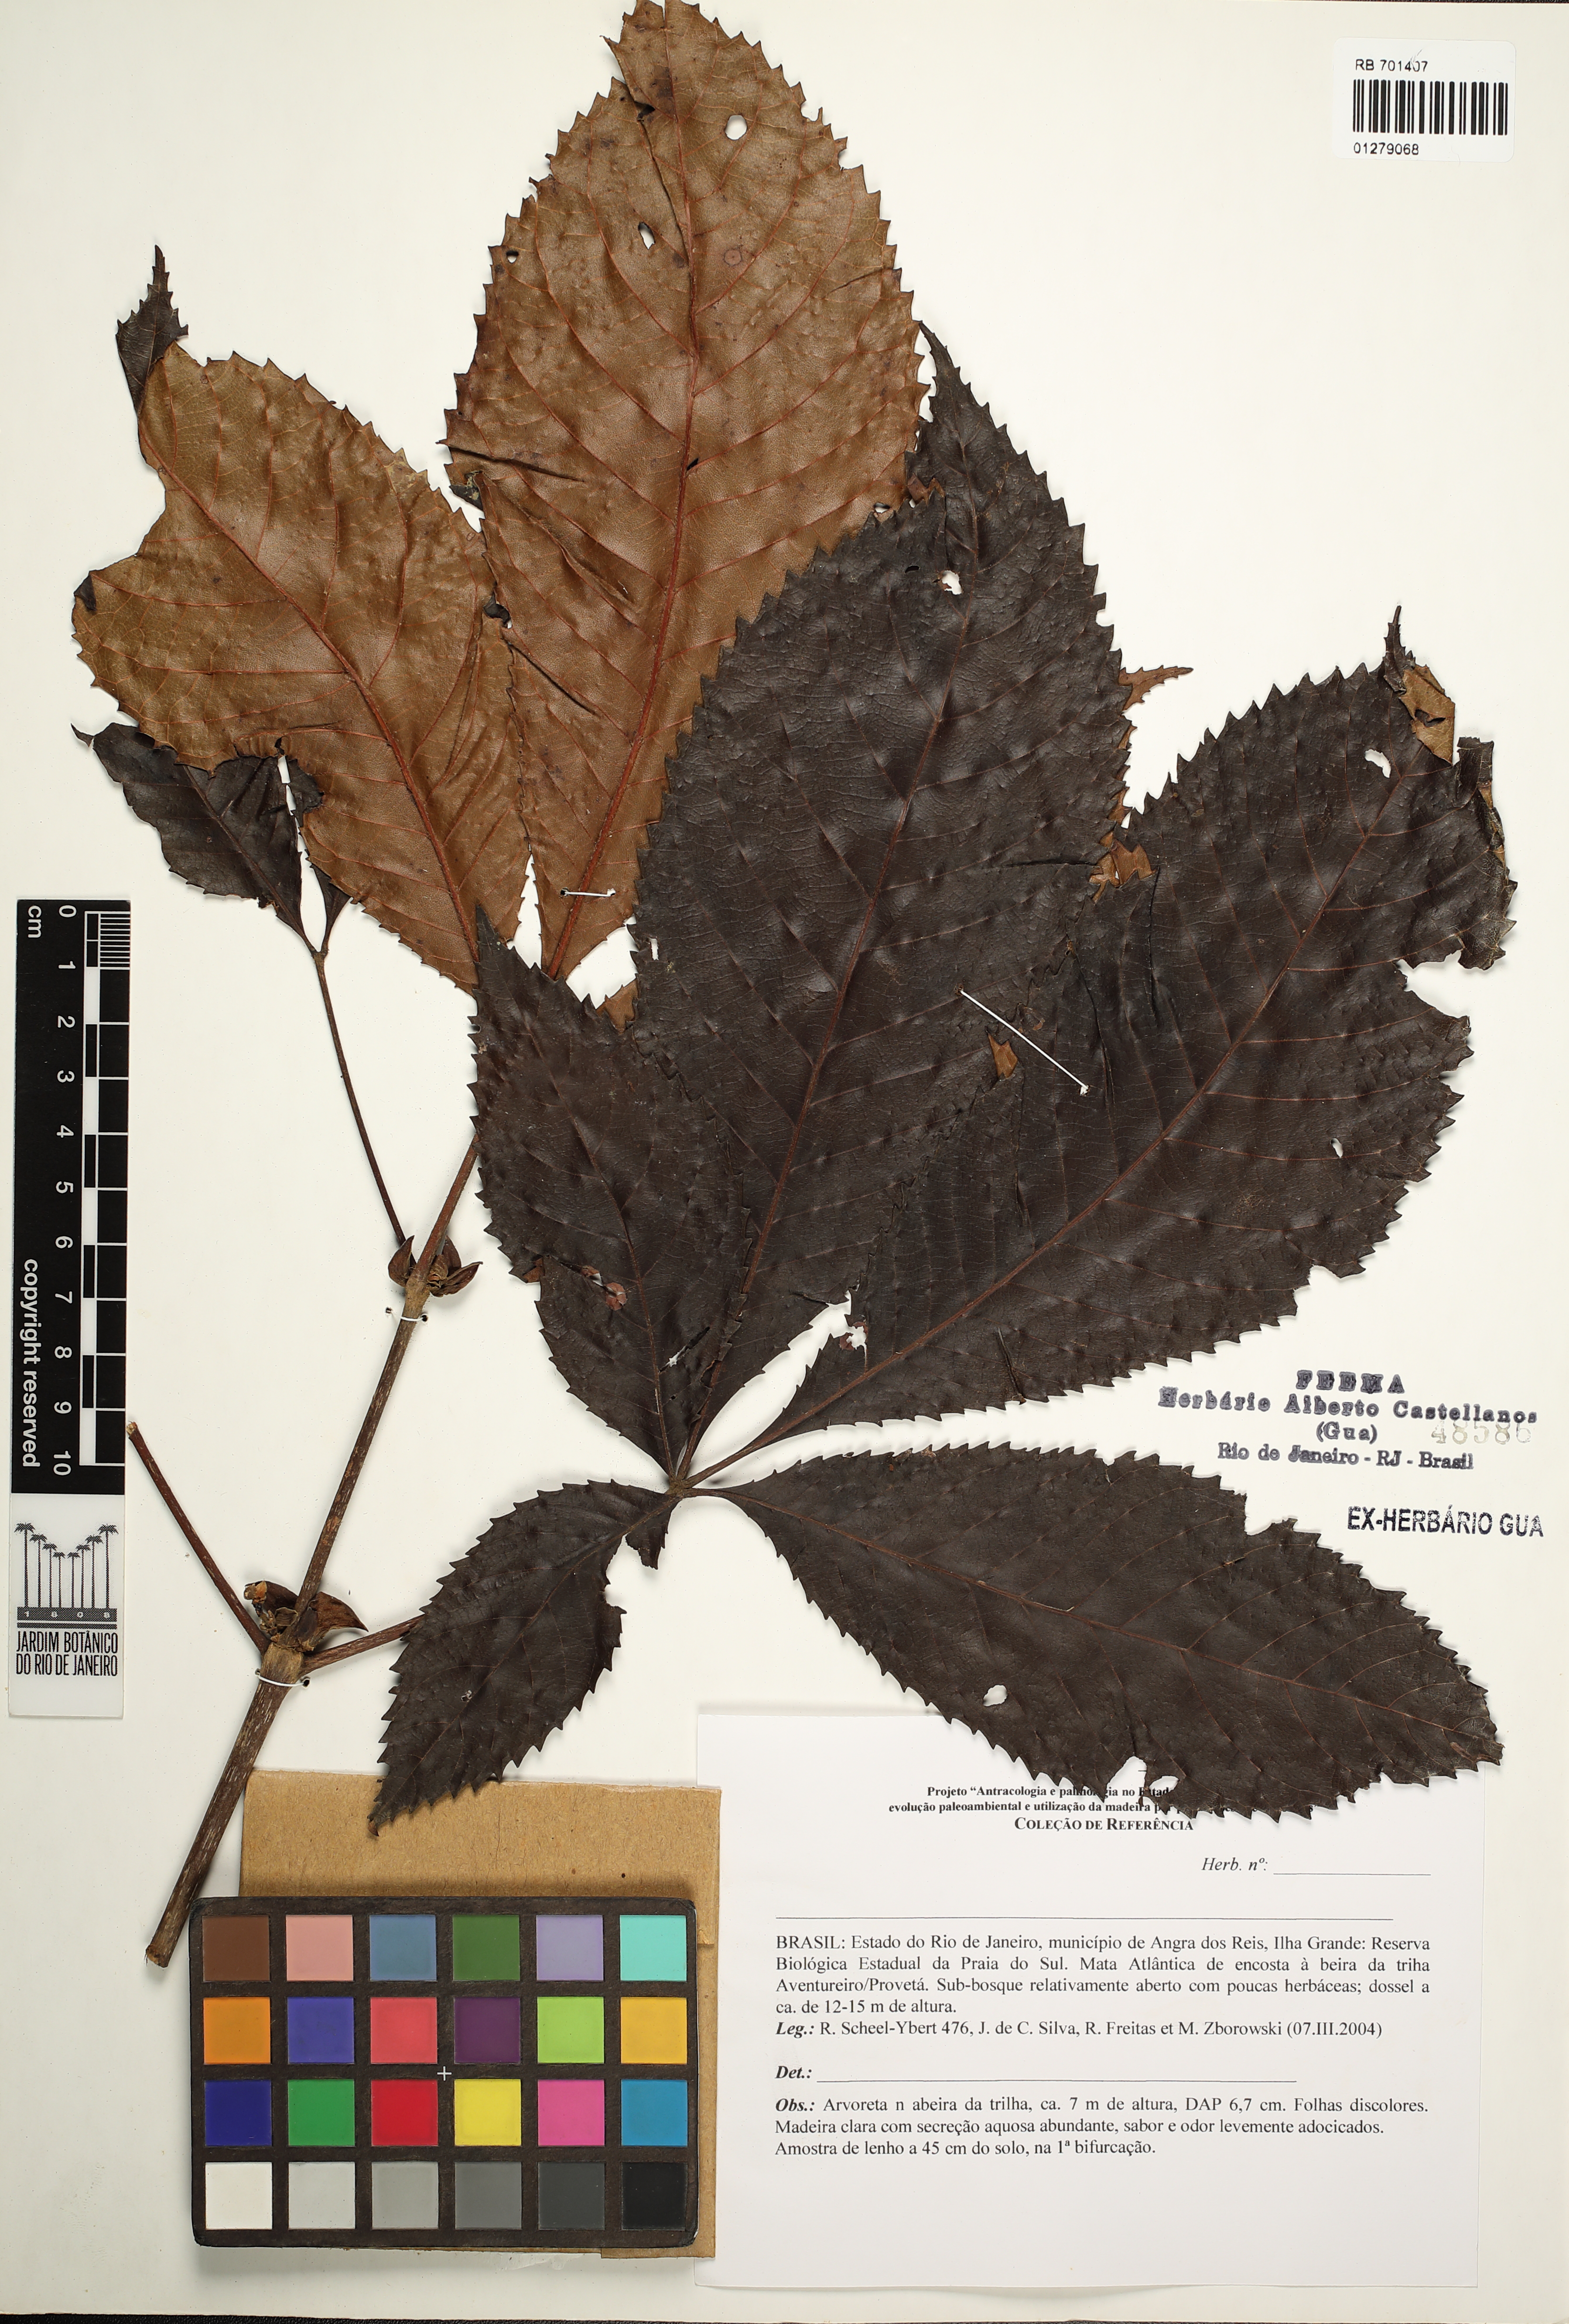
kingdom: Plantae
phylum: Tracheophyta
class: Magnoliopsida
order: Sapindales
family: Meliaceae
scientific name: Meliaceae
